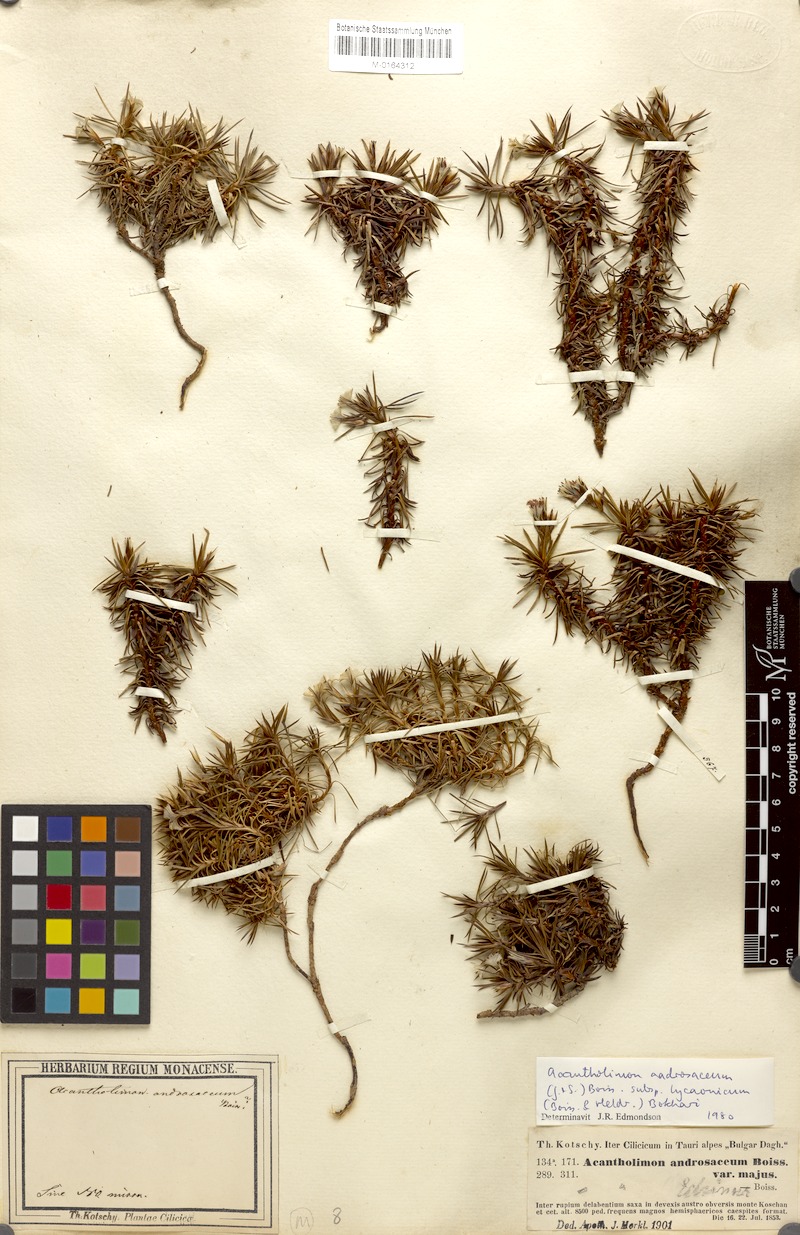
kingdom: Plantae
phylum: Tracheophyta
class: Magnoliopsida
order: Caryophyllales
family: Plumbaginaceae
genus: Acantholimon
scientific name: Acantholimon ulicinum
